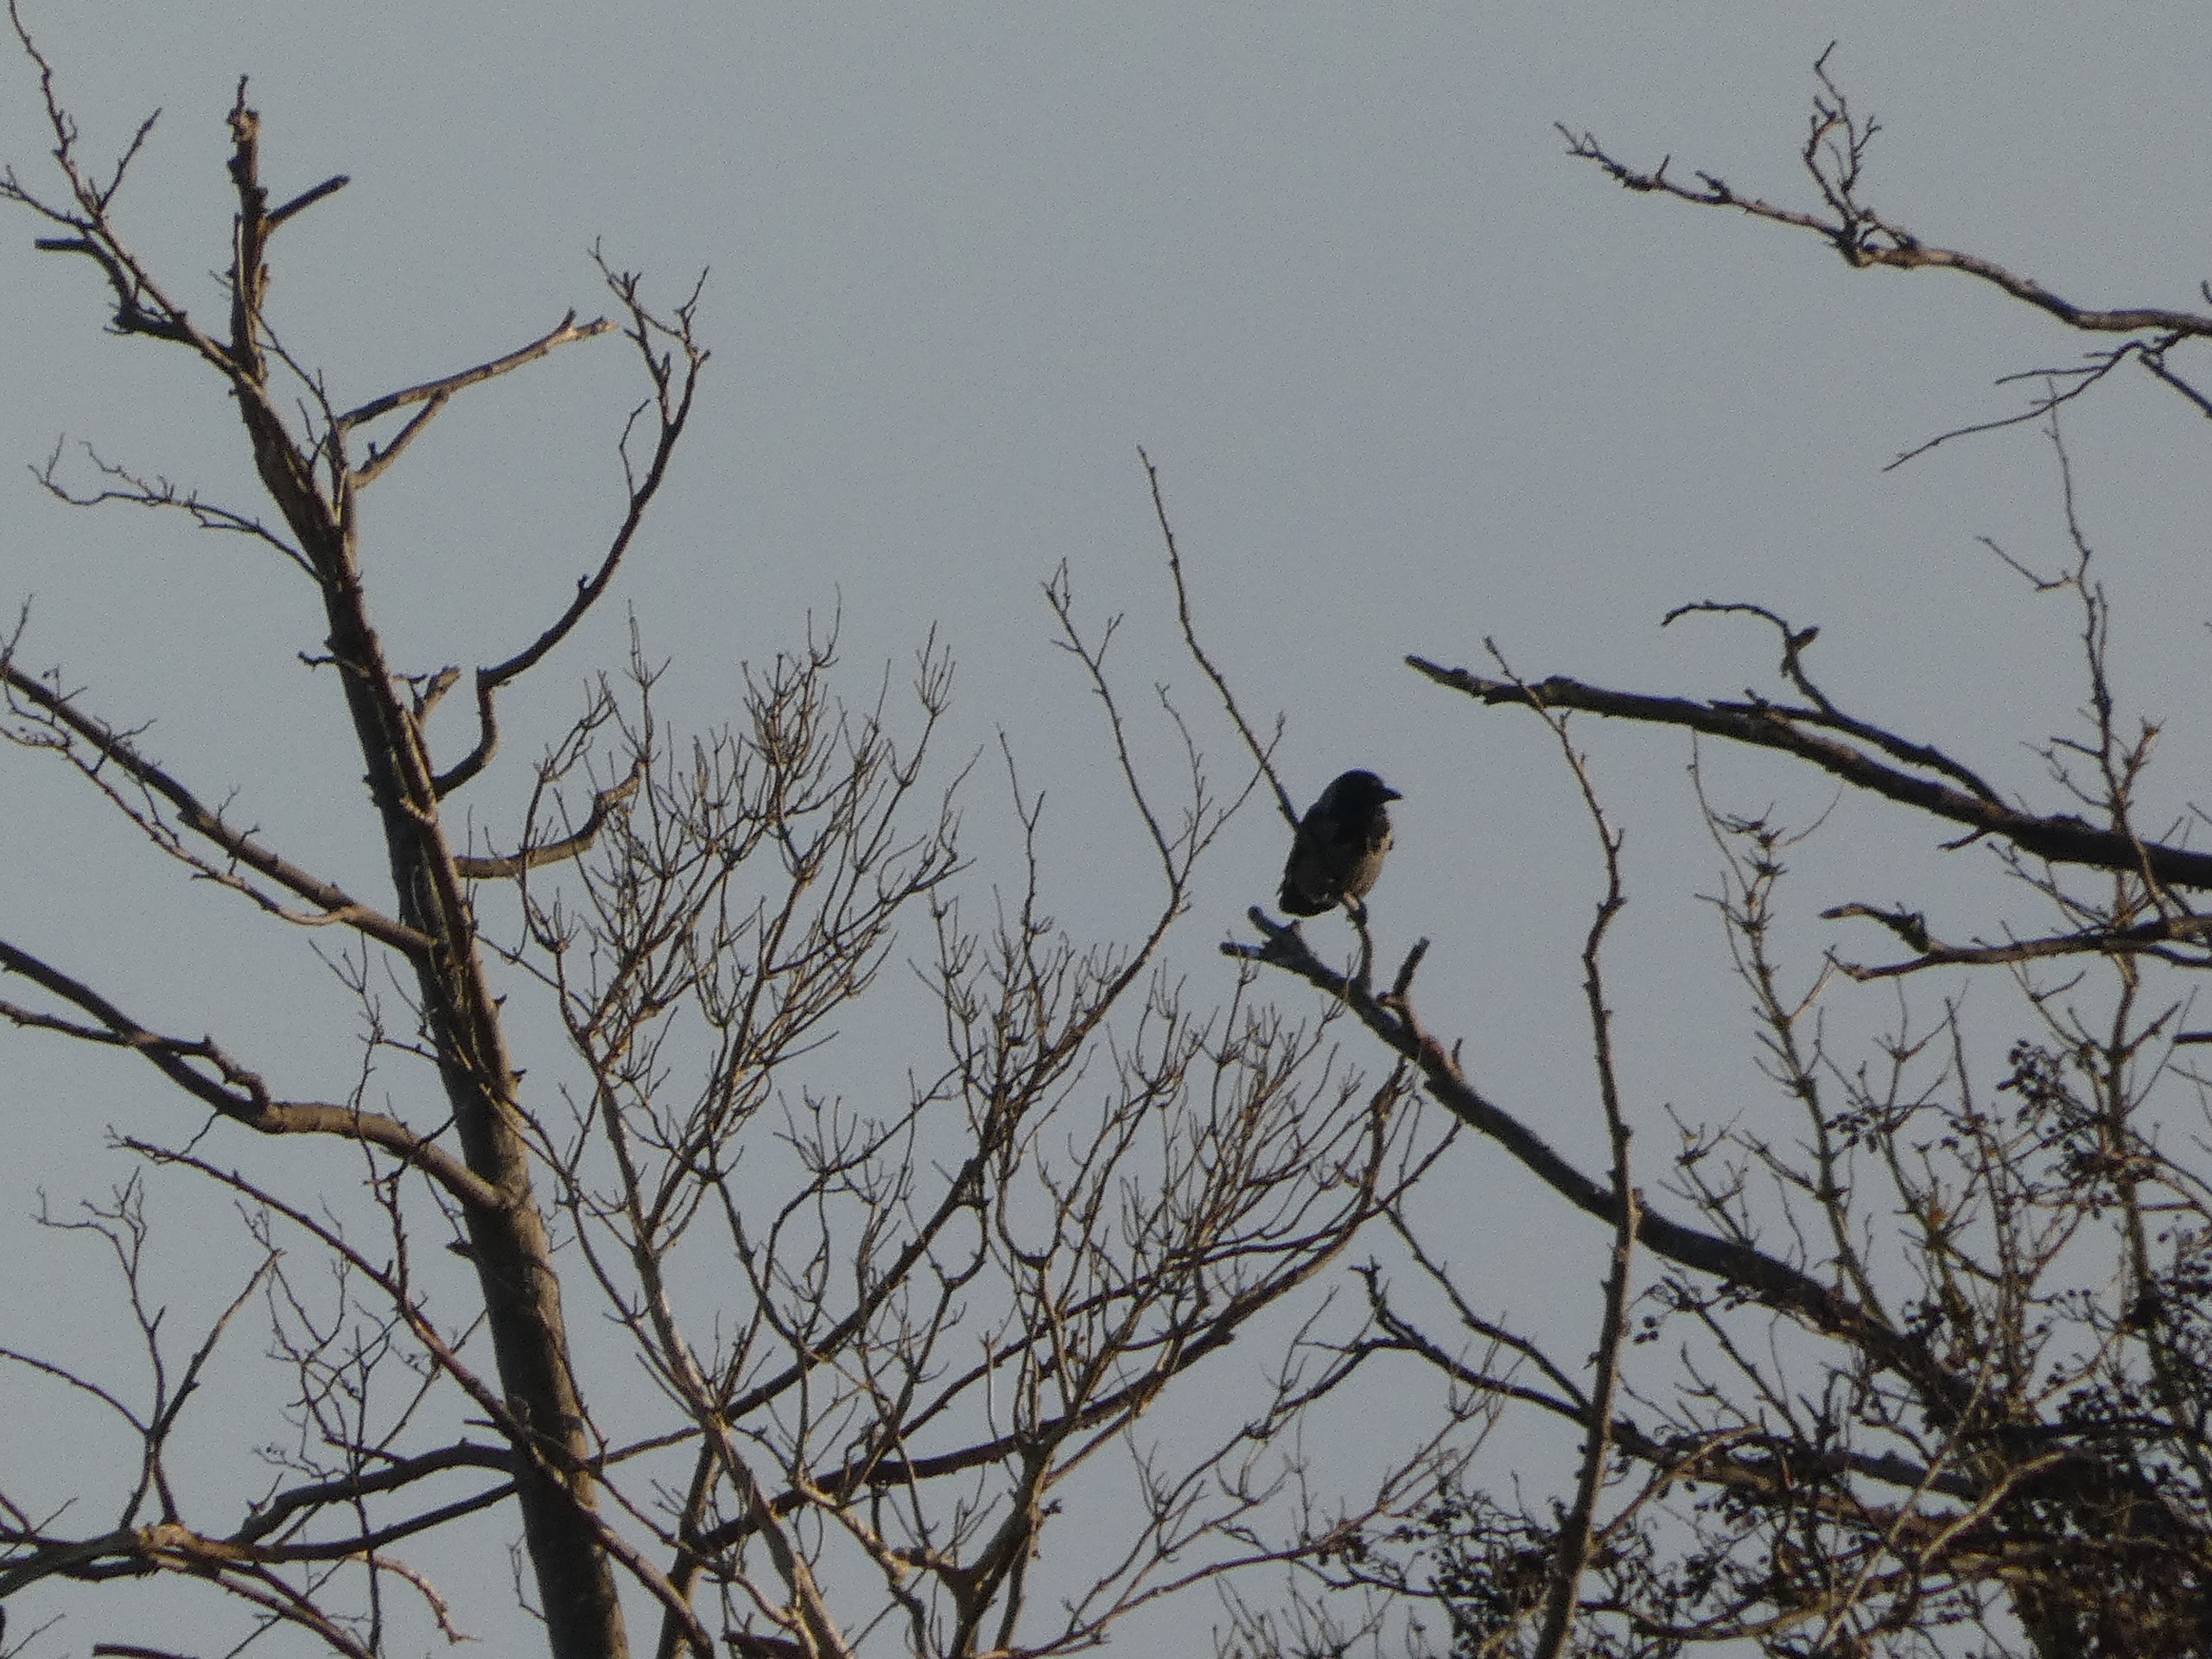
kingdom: Animalia
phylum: Chordata
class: Aves
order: Passeriformes
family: Corvidae
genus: Corvus
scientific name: Corvus cornix
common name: Gråkrage
